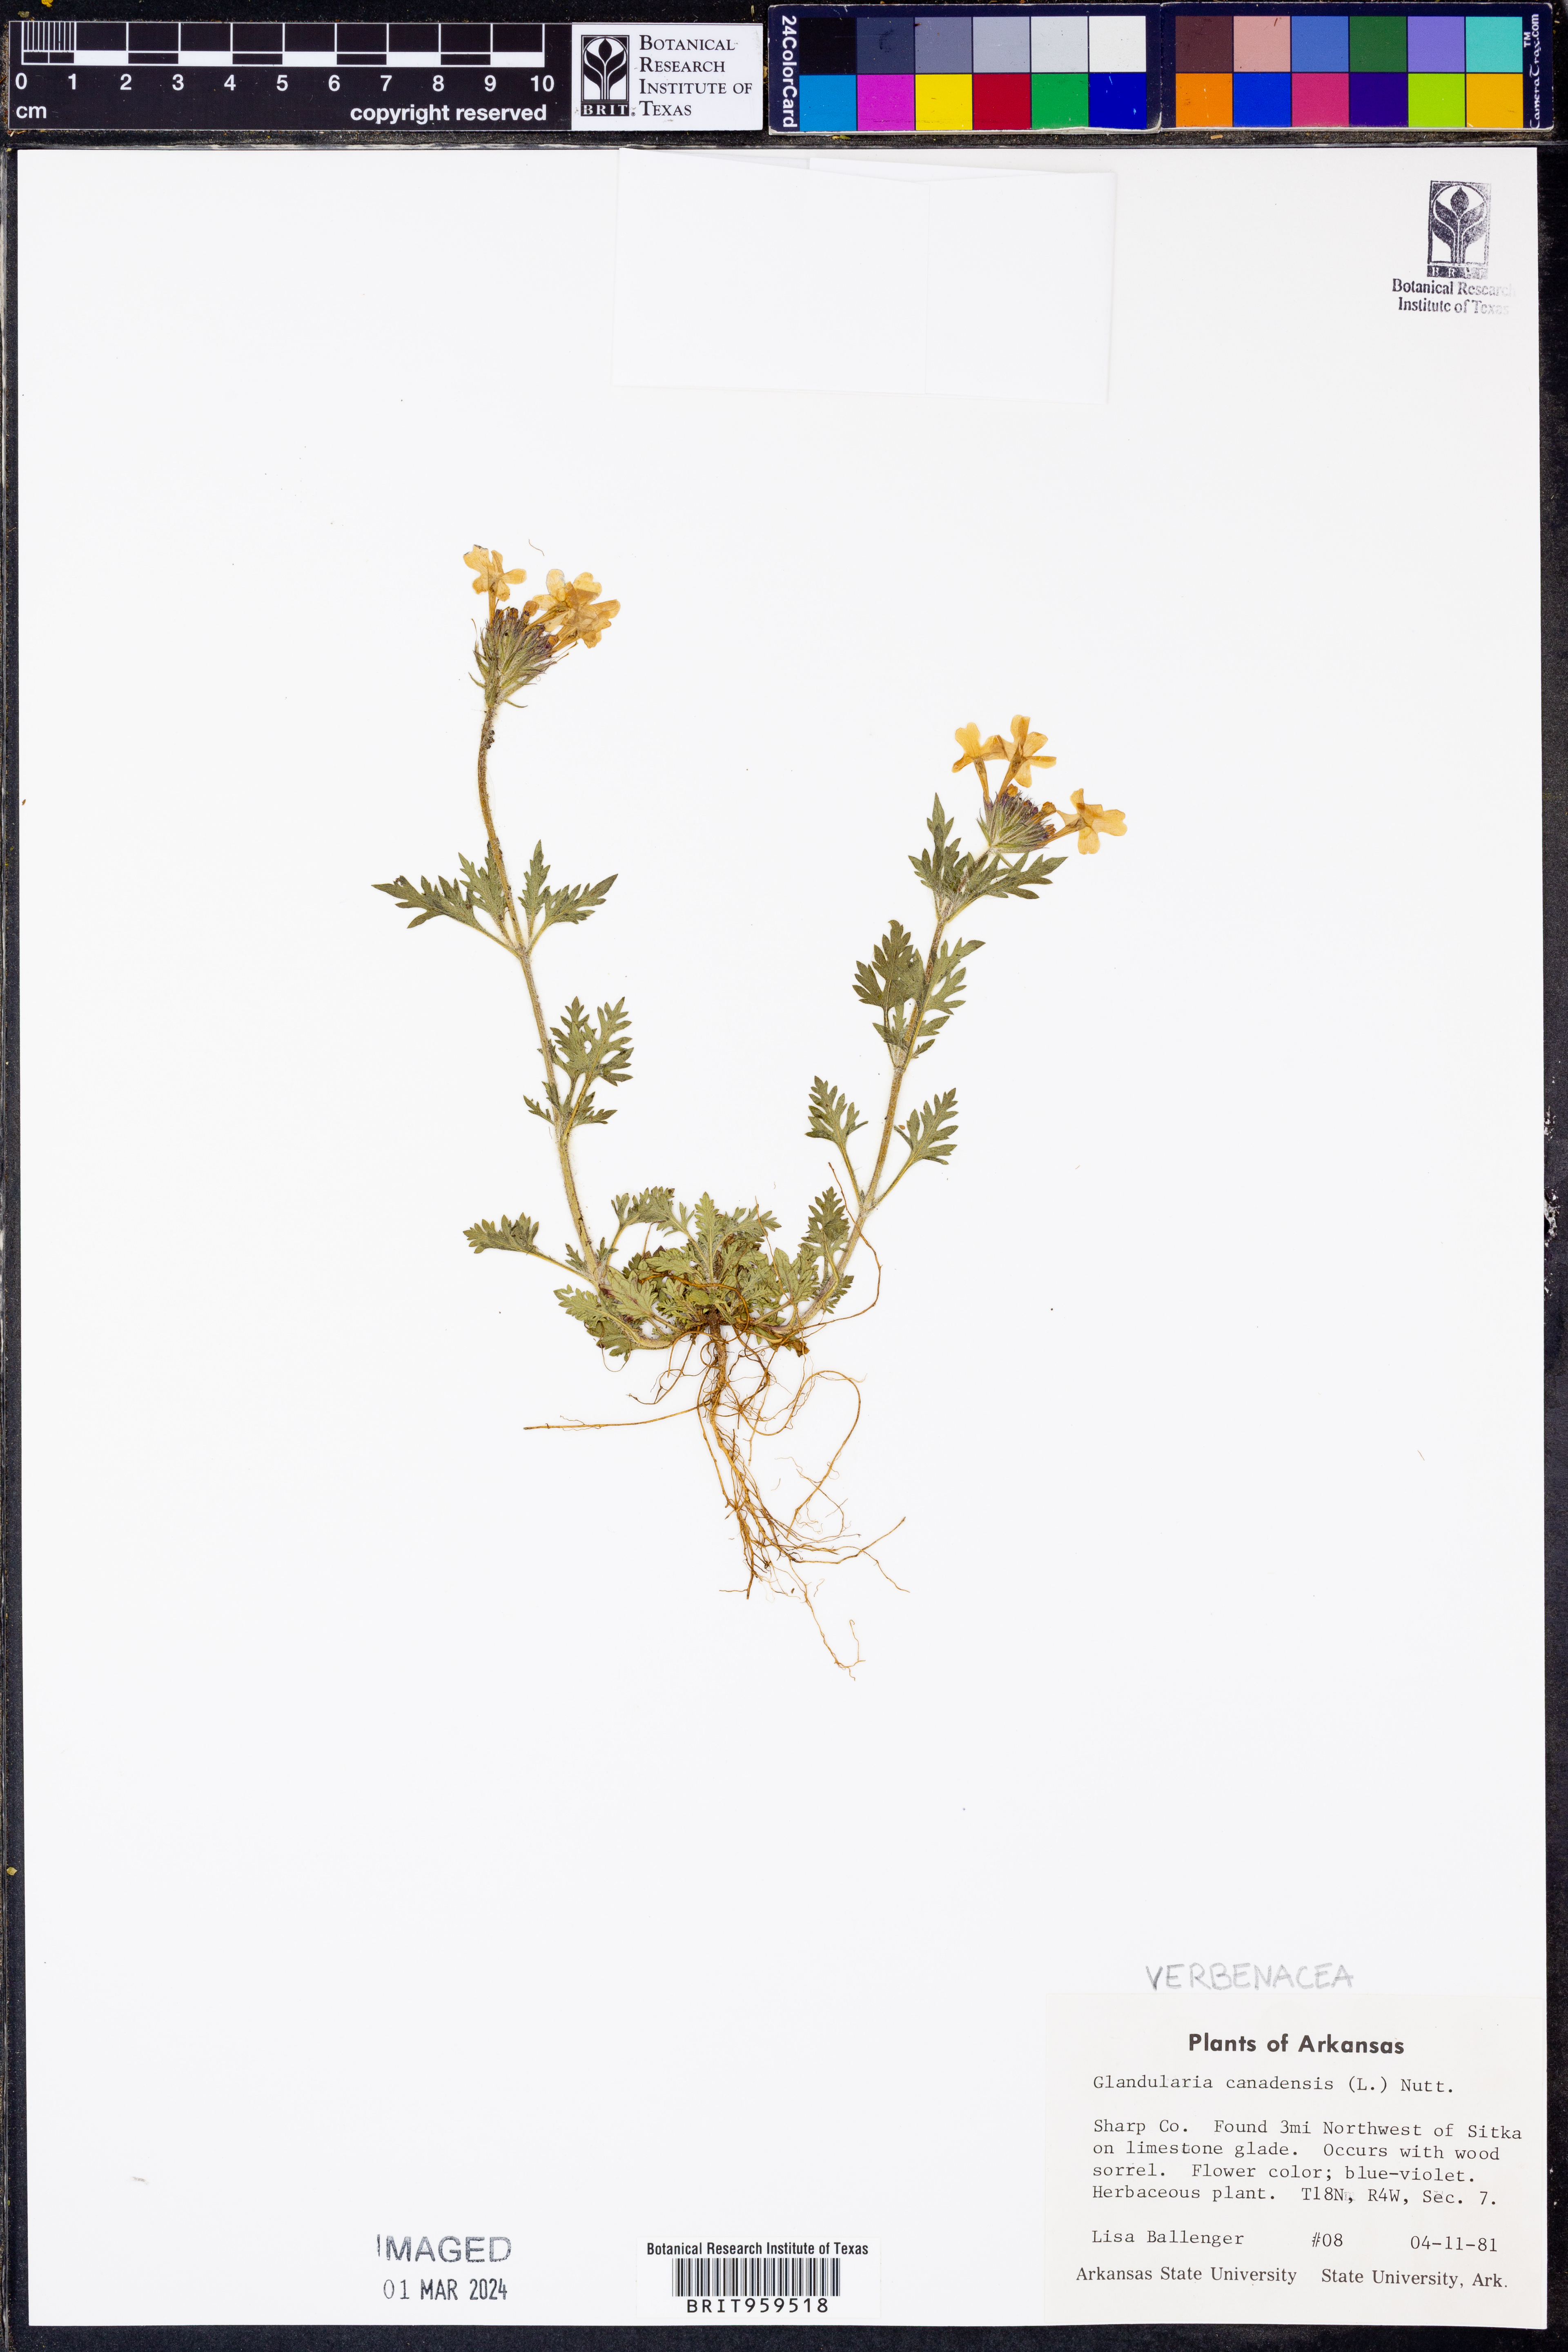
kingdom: Plantae
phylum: Tracheophyta
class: Magnoliopsida
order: Lamiales
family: Verbenaceae
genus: Verbena
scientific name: Verbena canadensis
